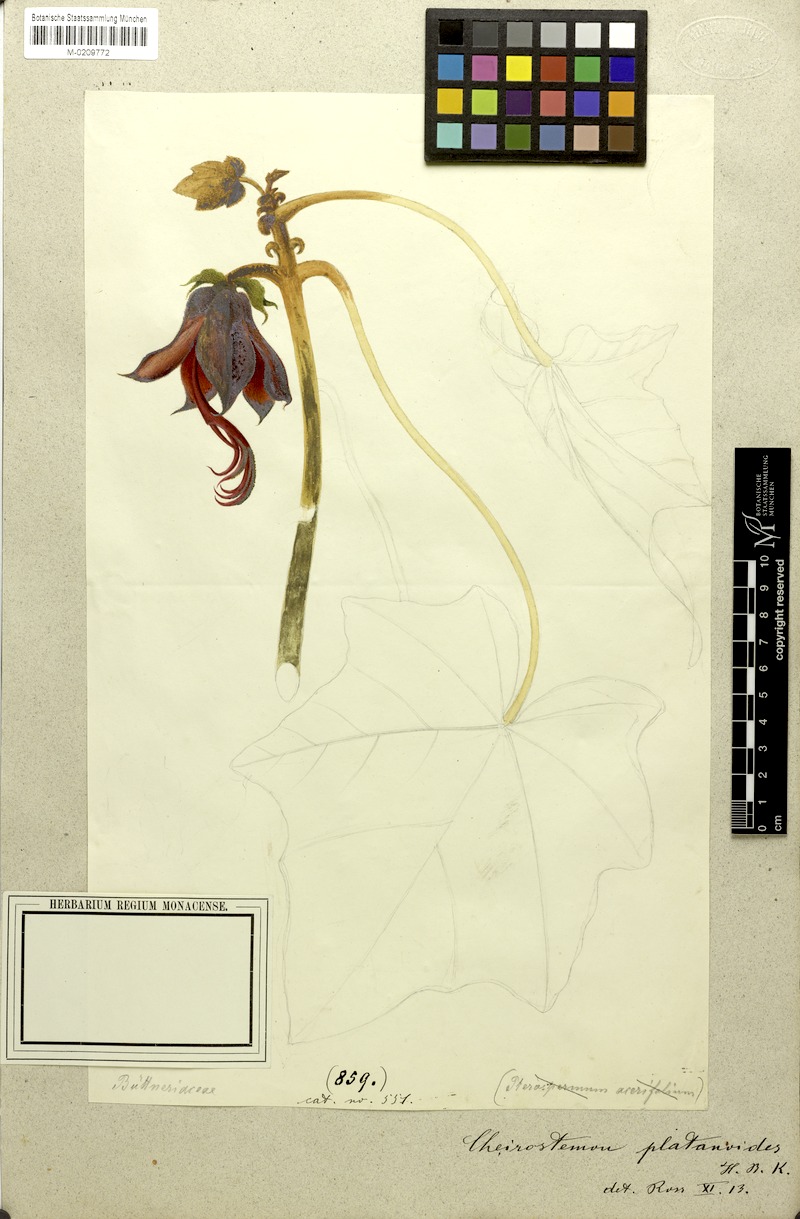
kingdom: Plantae
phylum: Tracheophyta
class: Magnoliopsida
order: Malvales
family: Malvaceae
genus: Chiranthodendron
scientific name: Chiranthodendron pentadactylon
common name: Mexican-hat-plant
